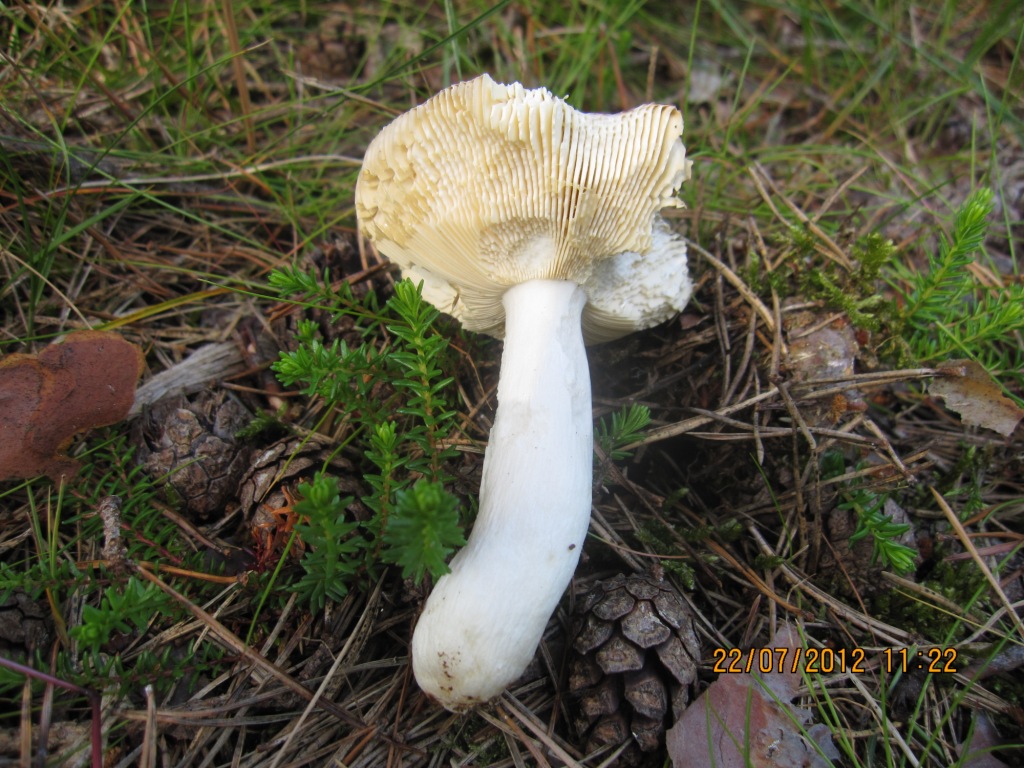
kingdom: Fungi
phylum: Basidiomycota
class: Agaricomycetes
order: Russulales
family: Russulaceae
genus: Russula
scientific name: Russula caerulea
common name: puklet skørhat
